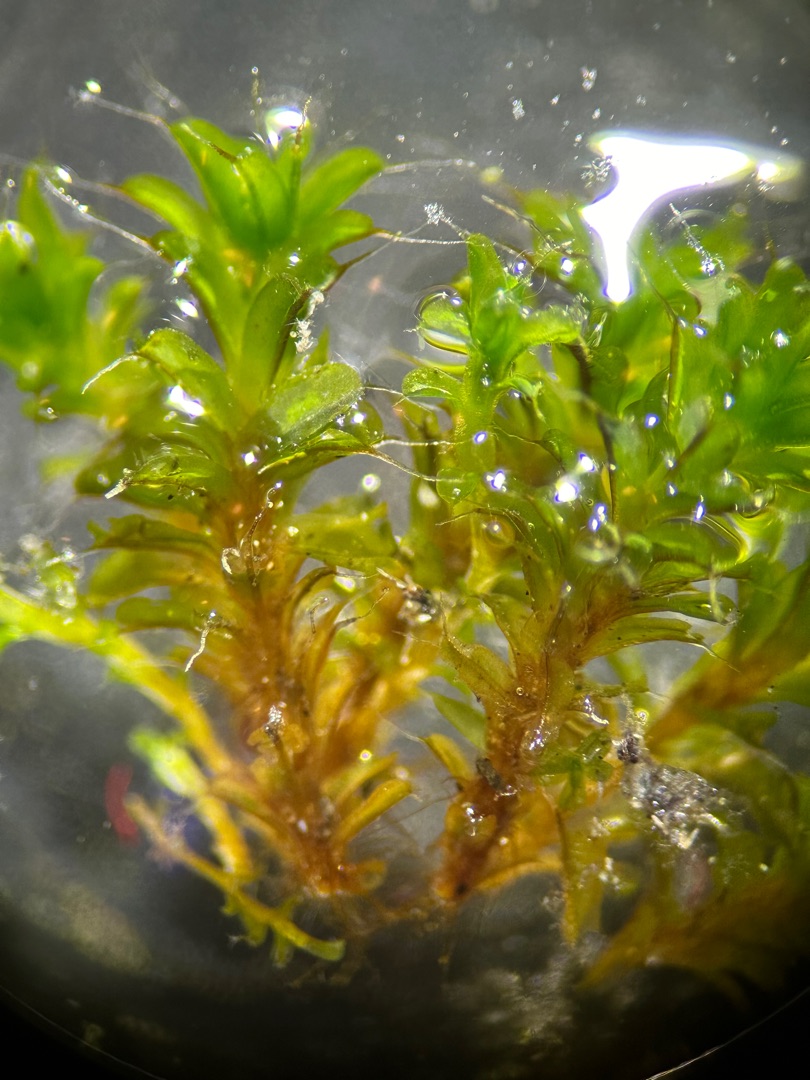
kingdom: Plantae
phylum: Bryophyta
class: Bryopsida
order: Pottiales
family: Pottiaceae
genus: Syntrichia
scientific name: Syntrichia virescens
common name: Grøn hårstjerne
